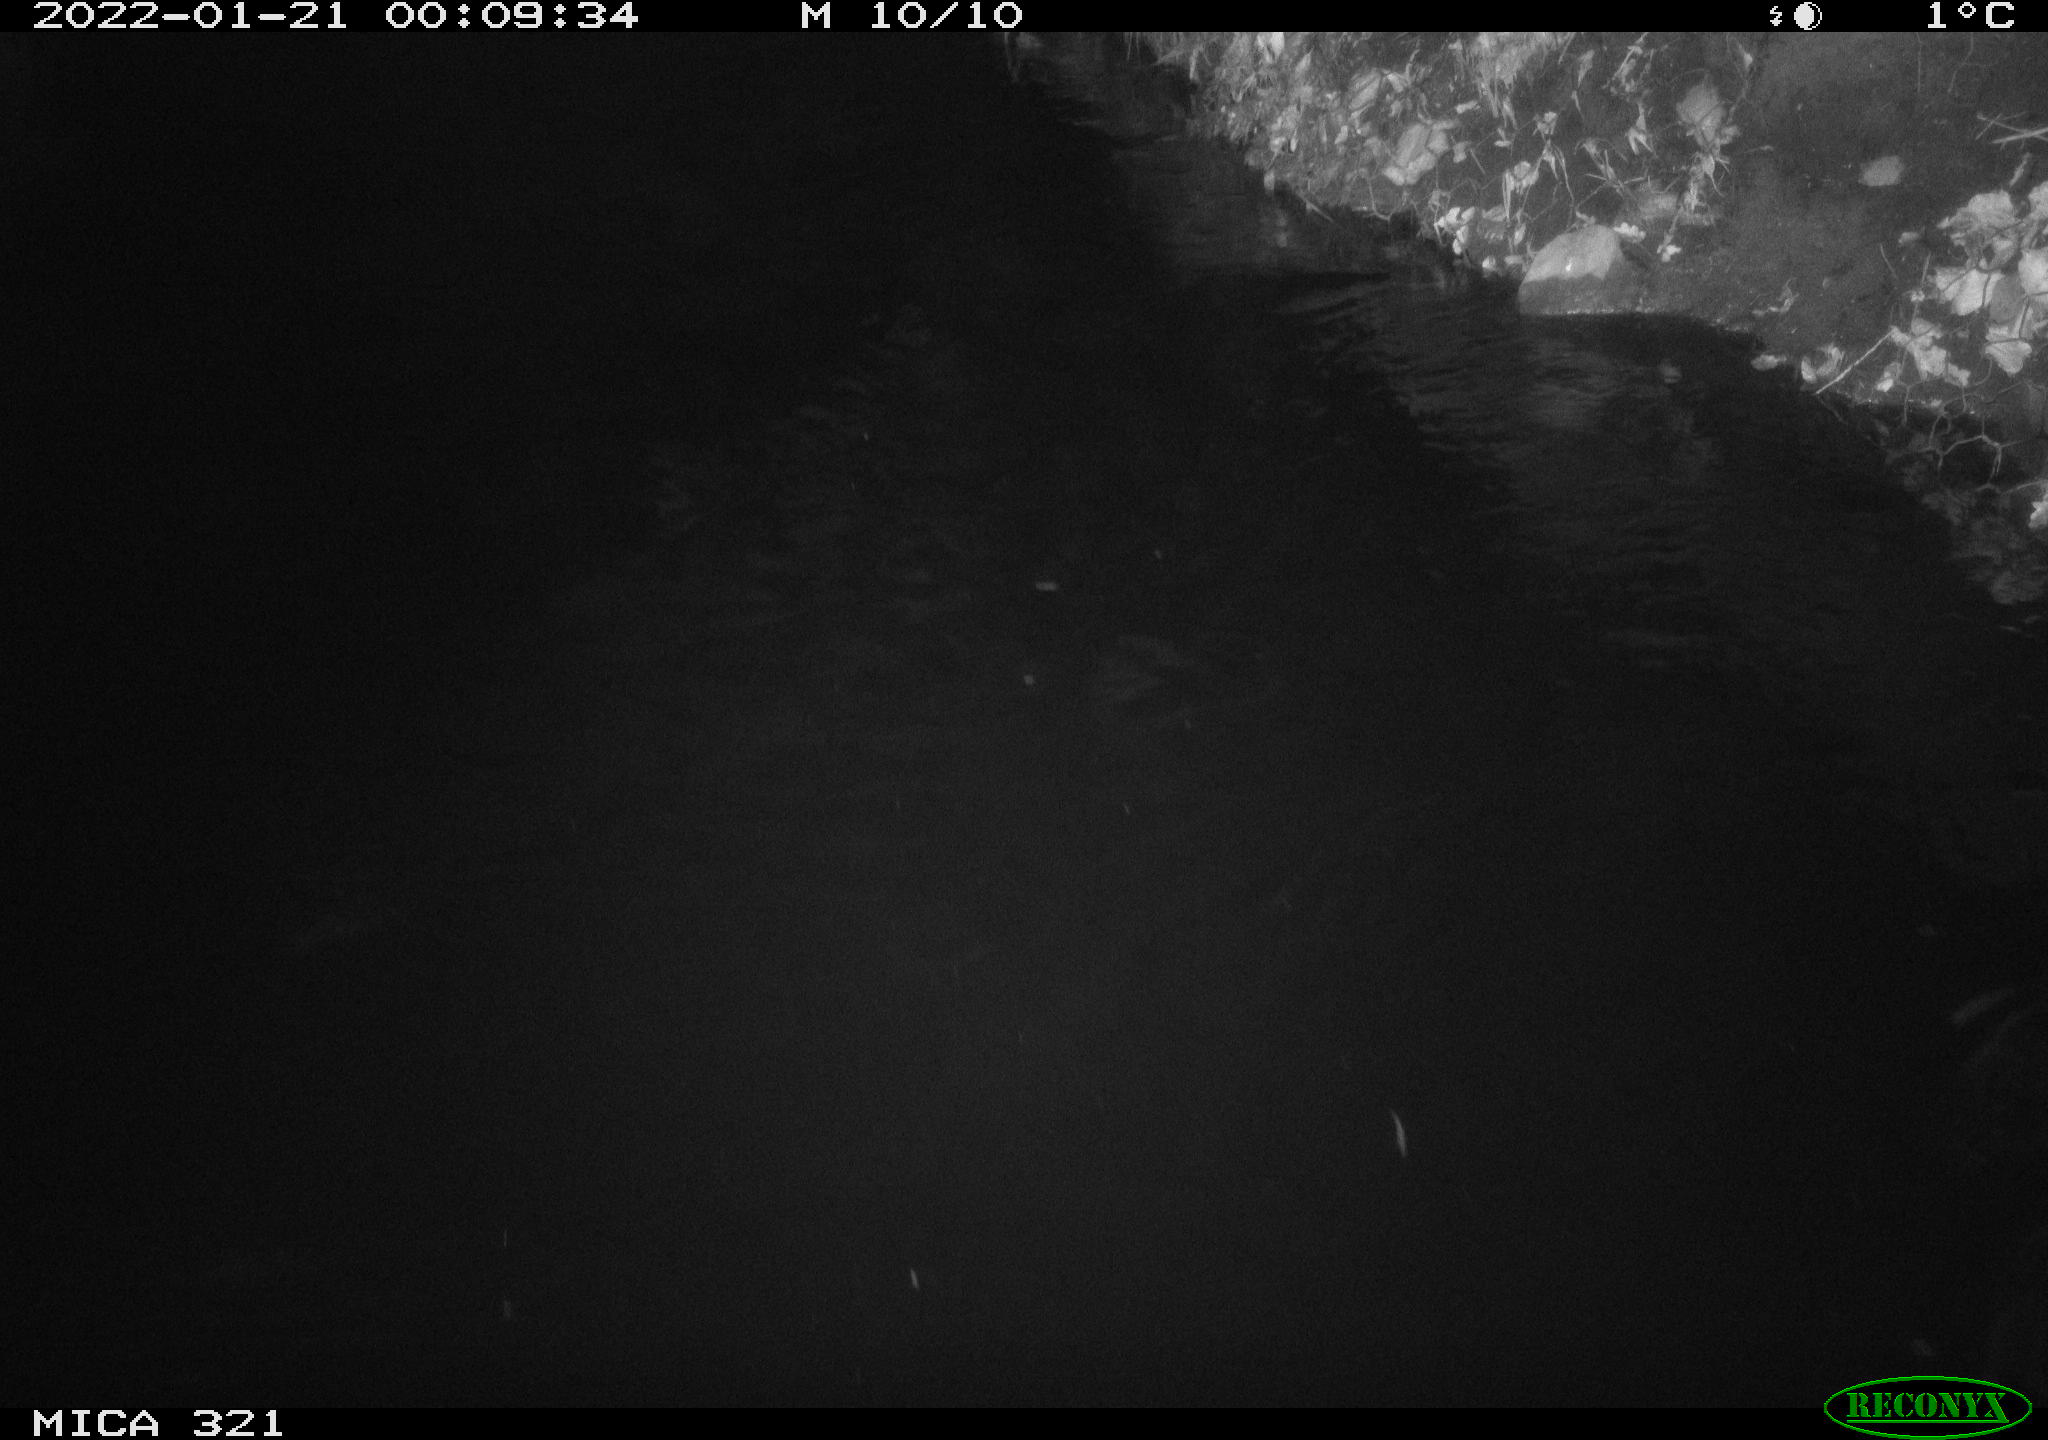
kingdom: Animalia
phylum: Chordata
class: Aves
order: Anseriformes
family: Anatidae
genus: Anas
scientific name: Anas
